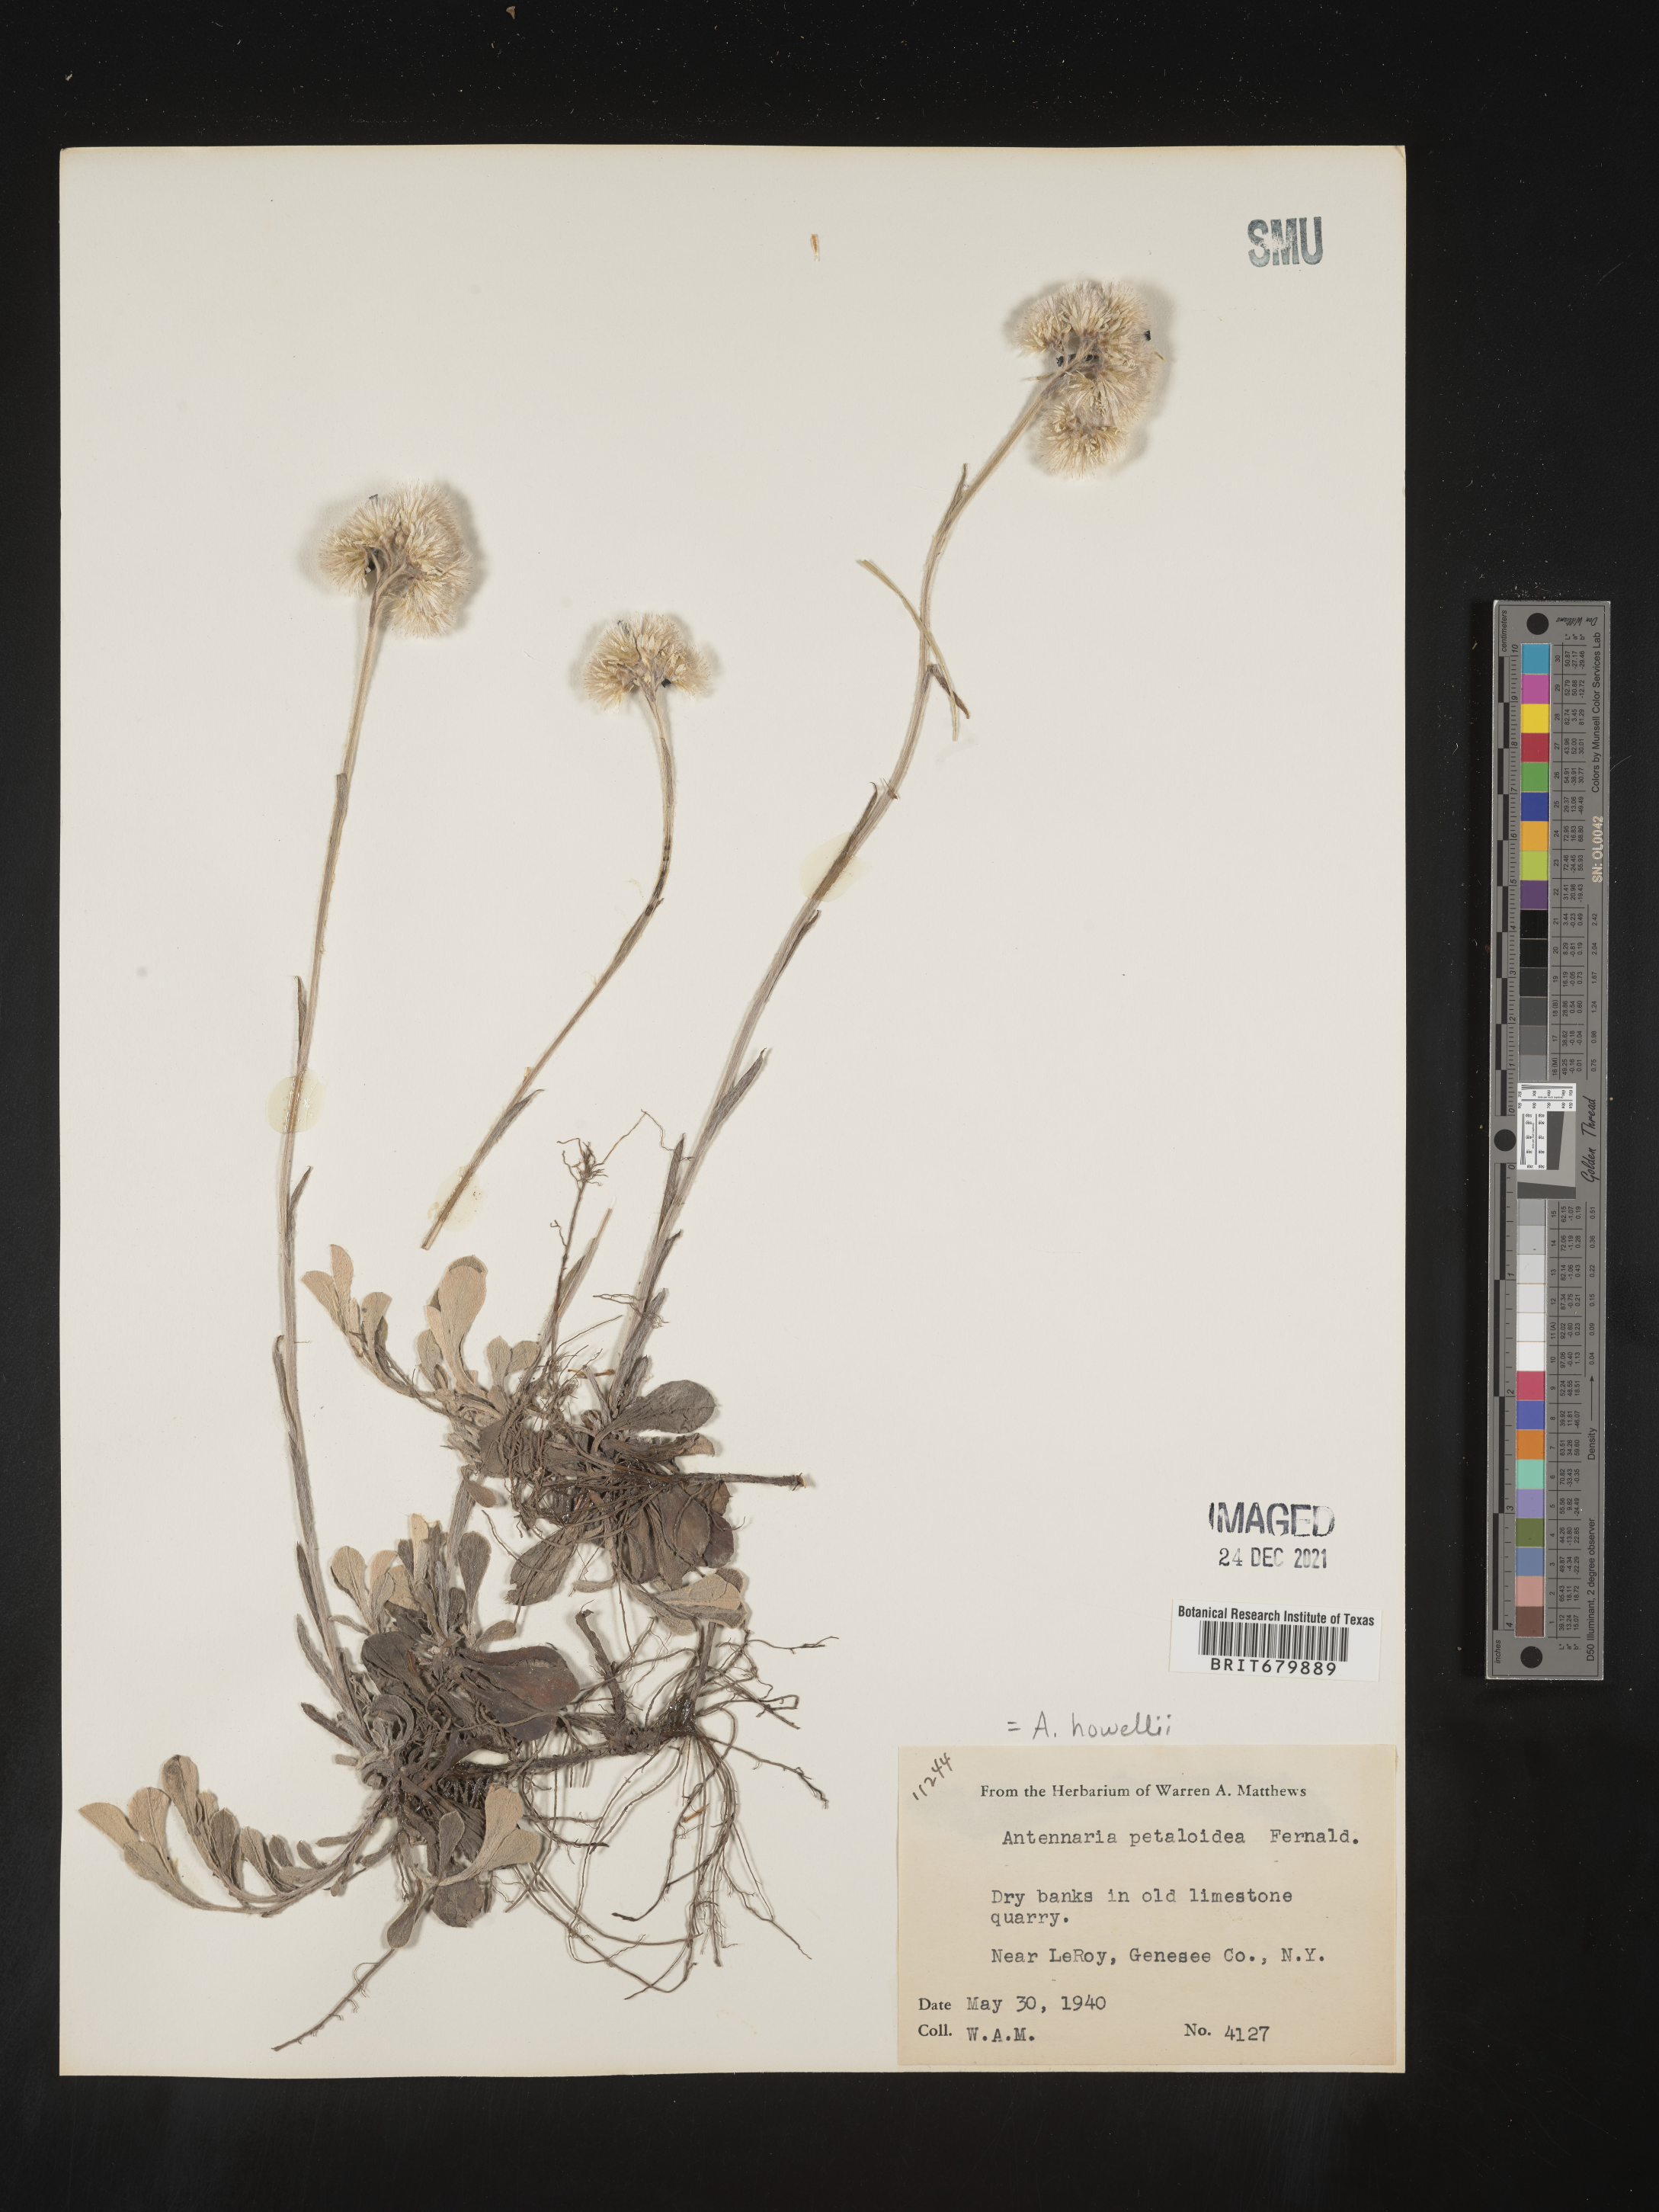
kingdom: Plantae
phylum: Tracheophyta
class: Magnoliopsida
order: Asterales
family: Asteraceae
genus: Antennaria
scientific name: Antennaria howellii
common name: Howell's pussytoes
